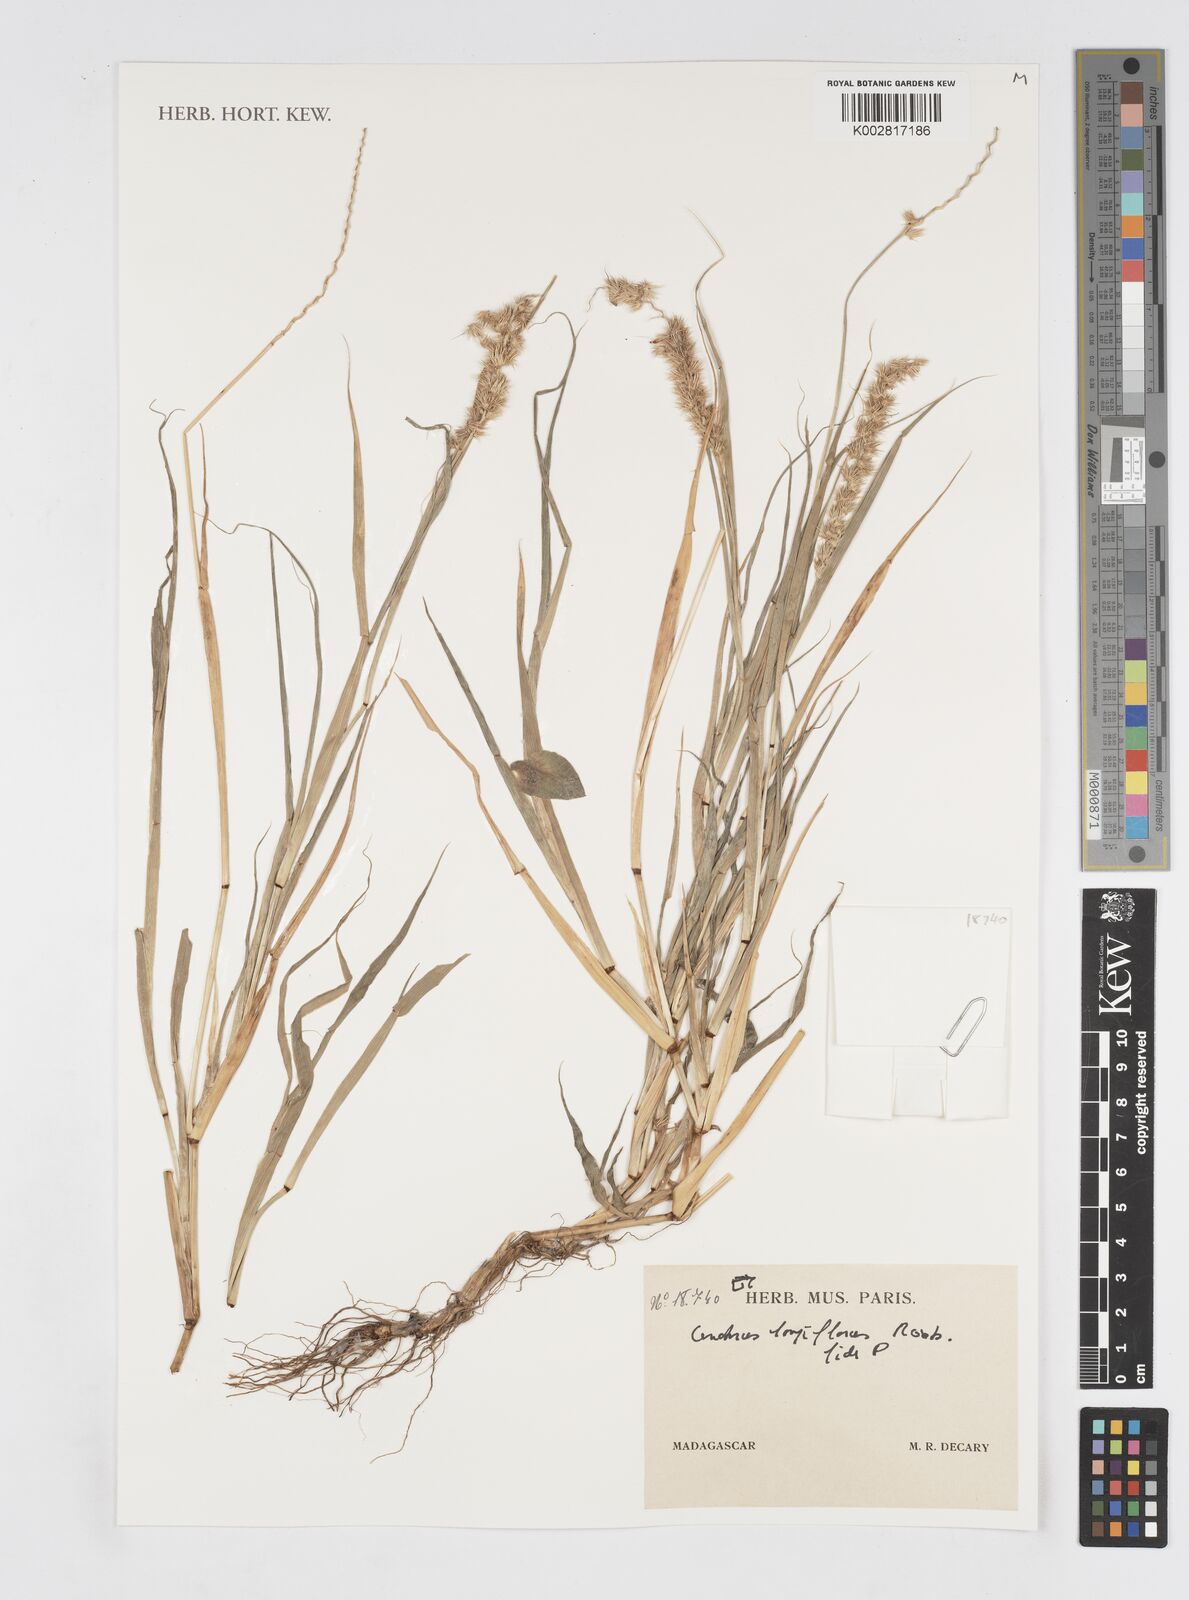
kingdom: Plantae
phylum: Tracheophyta
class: Liliopsida
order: Poales
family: Poaceae
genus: Cenchrus
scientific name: Cenchrus
